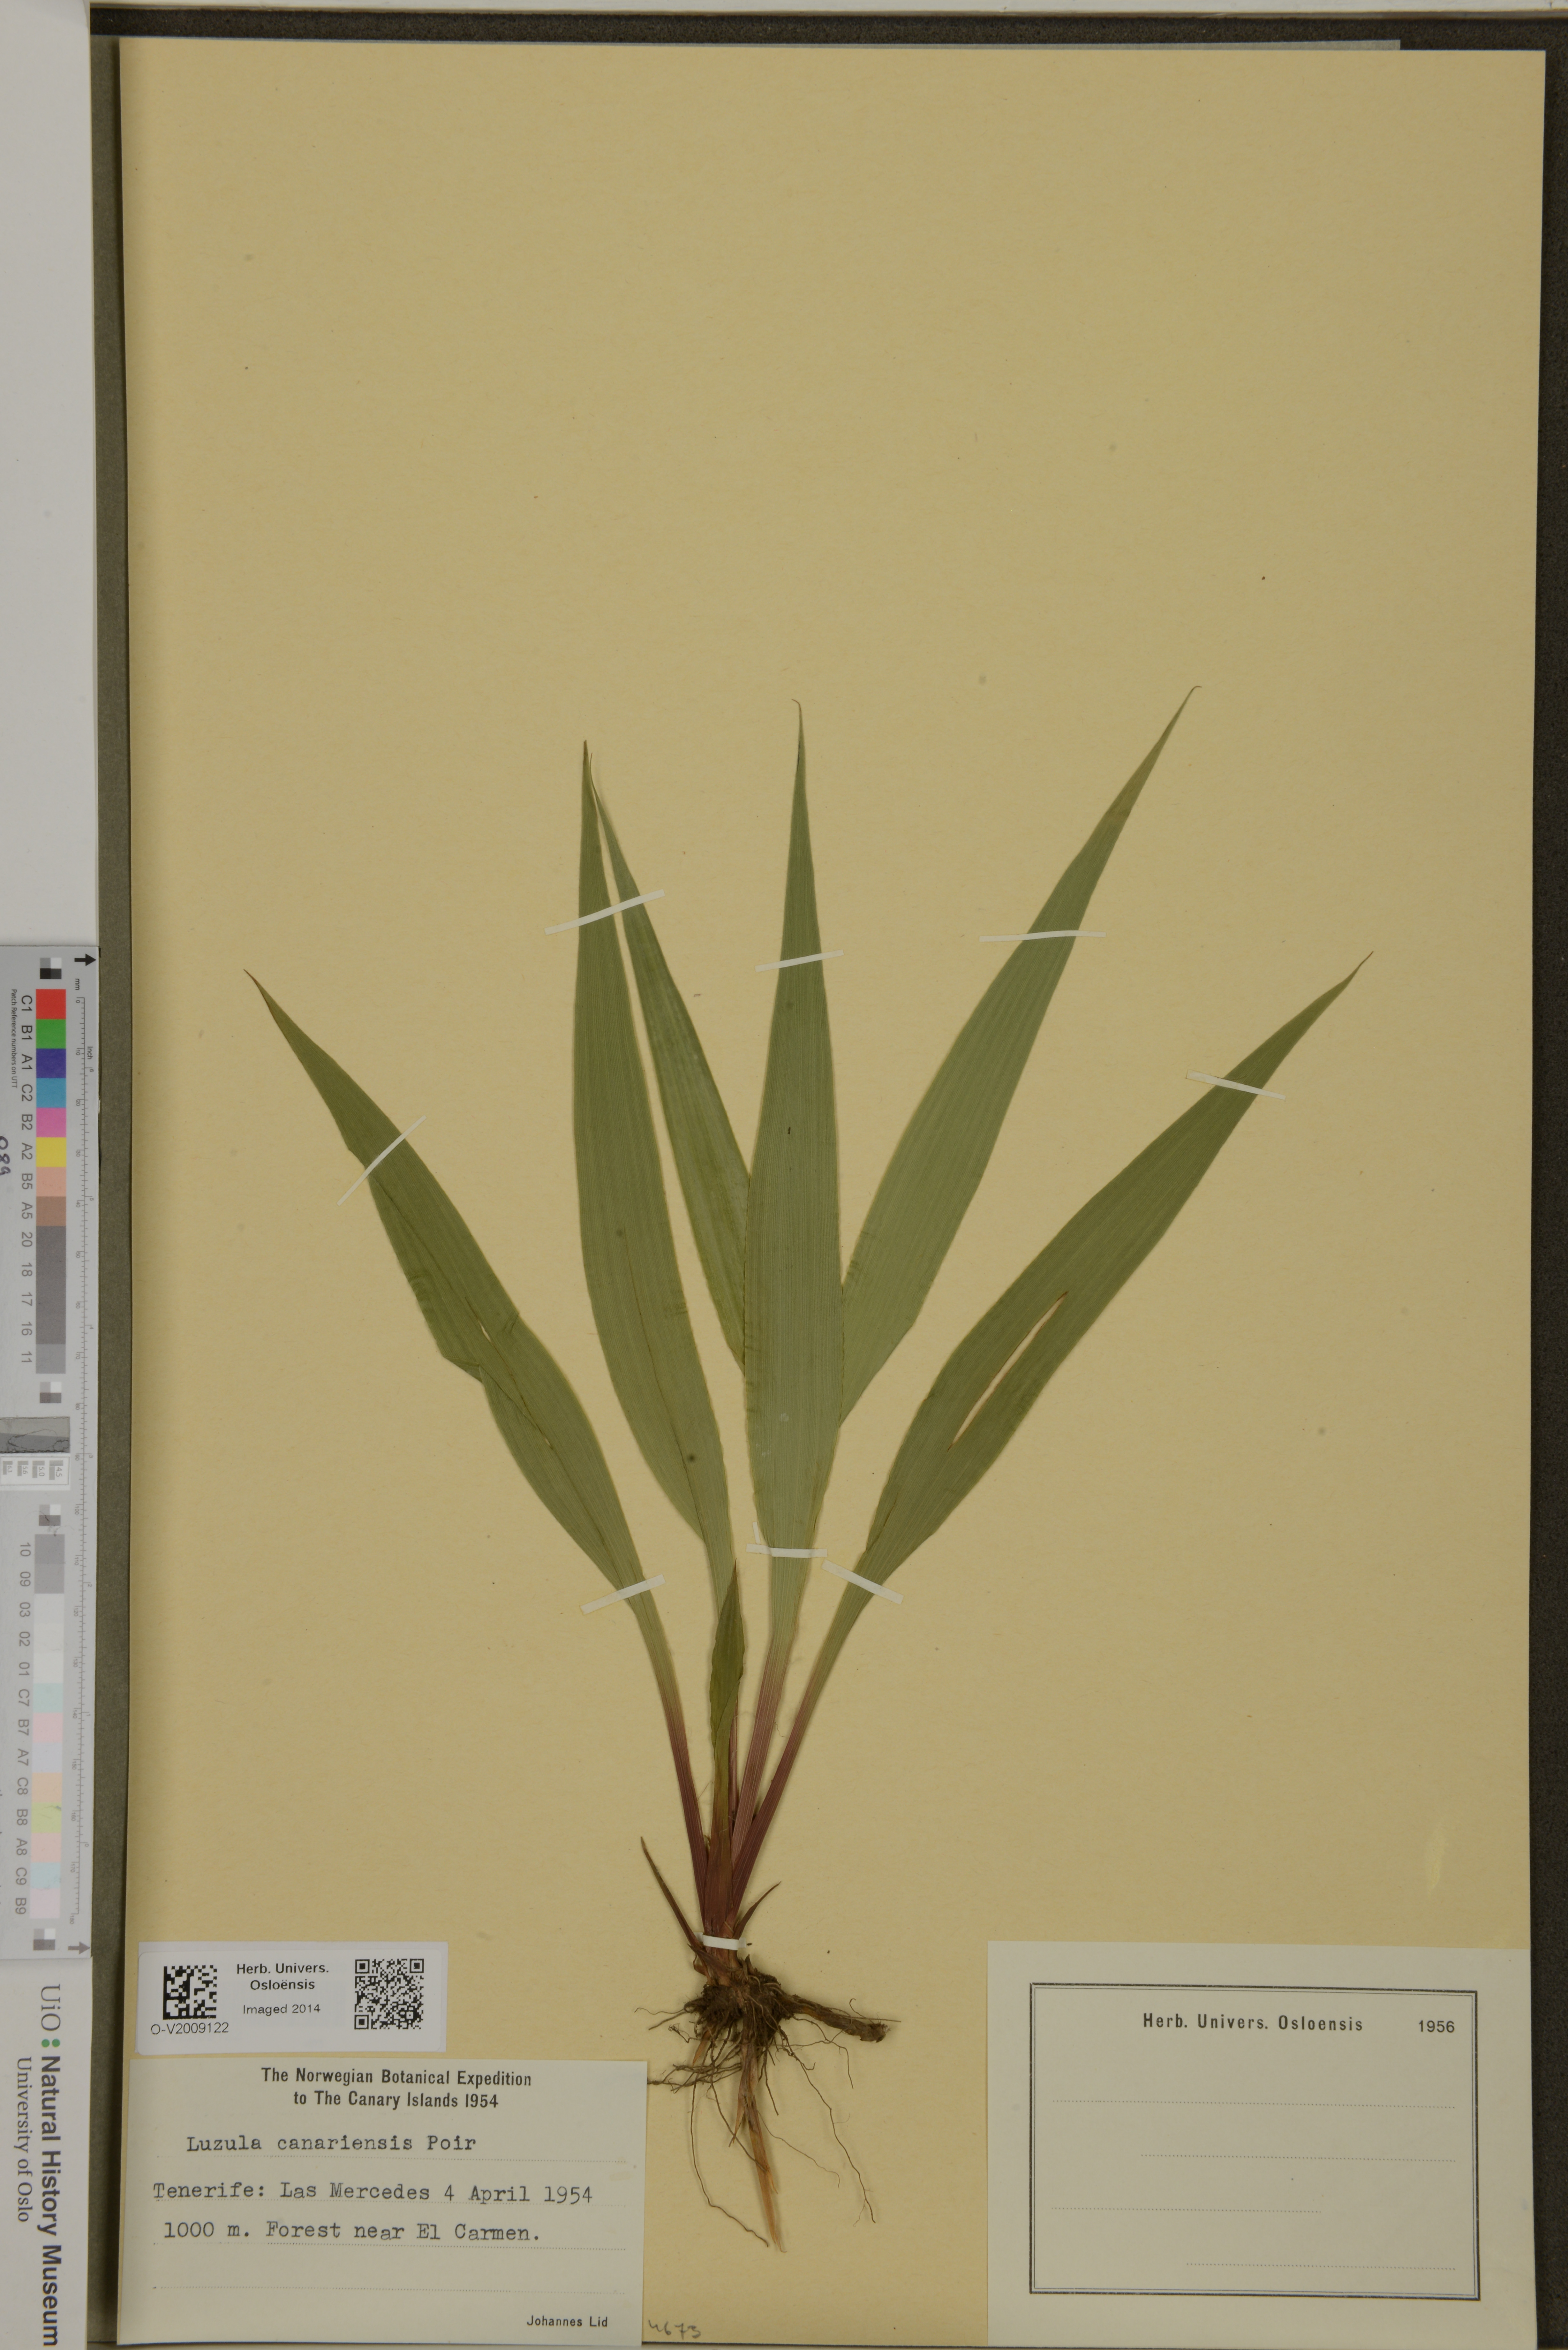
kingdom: Plantae
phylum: Tracheophyta
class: Liliopsida
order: Poales
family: Juncaceae
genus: Luzula
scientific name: Luzula canariensis
